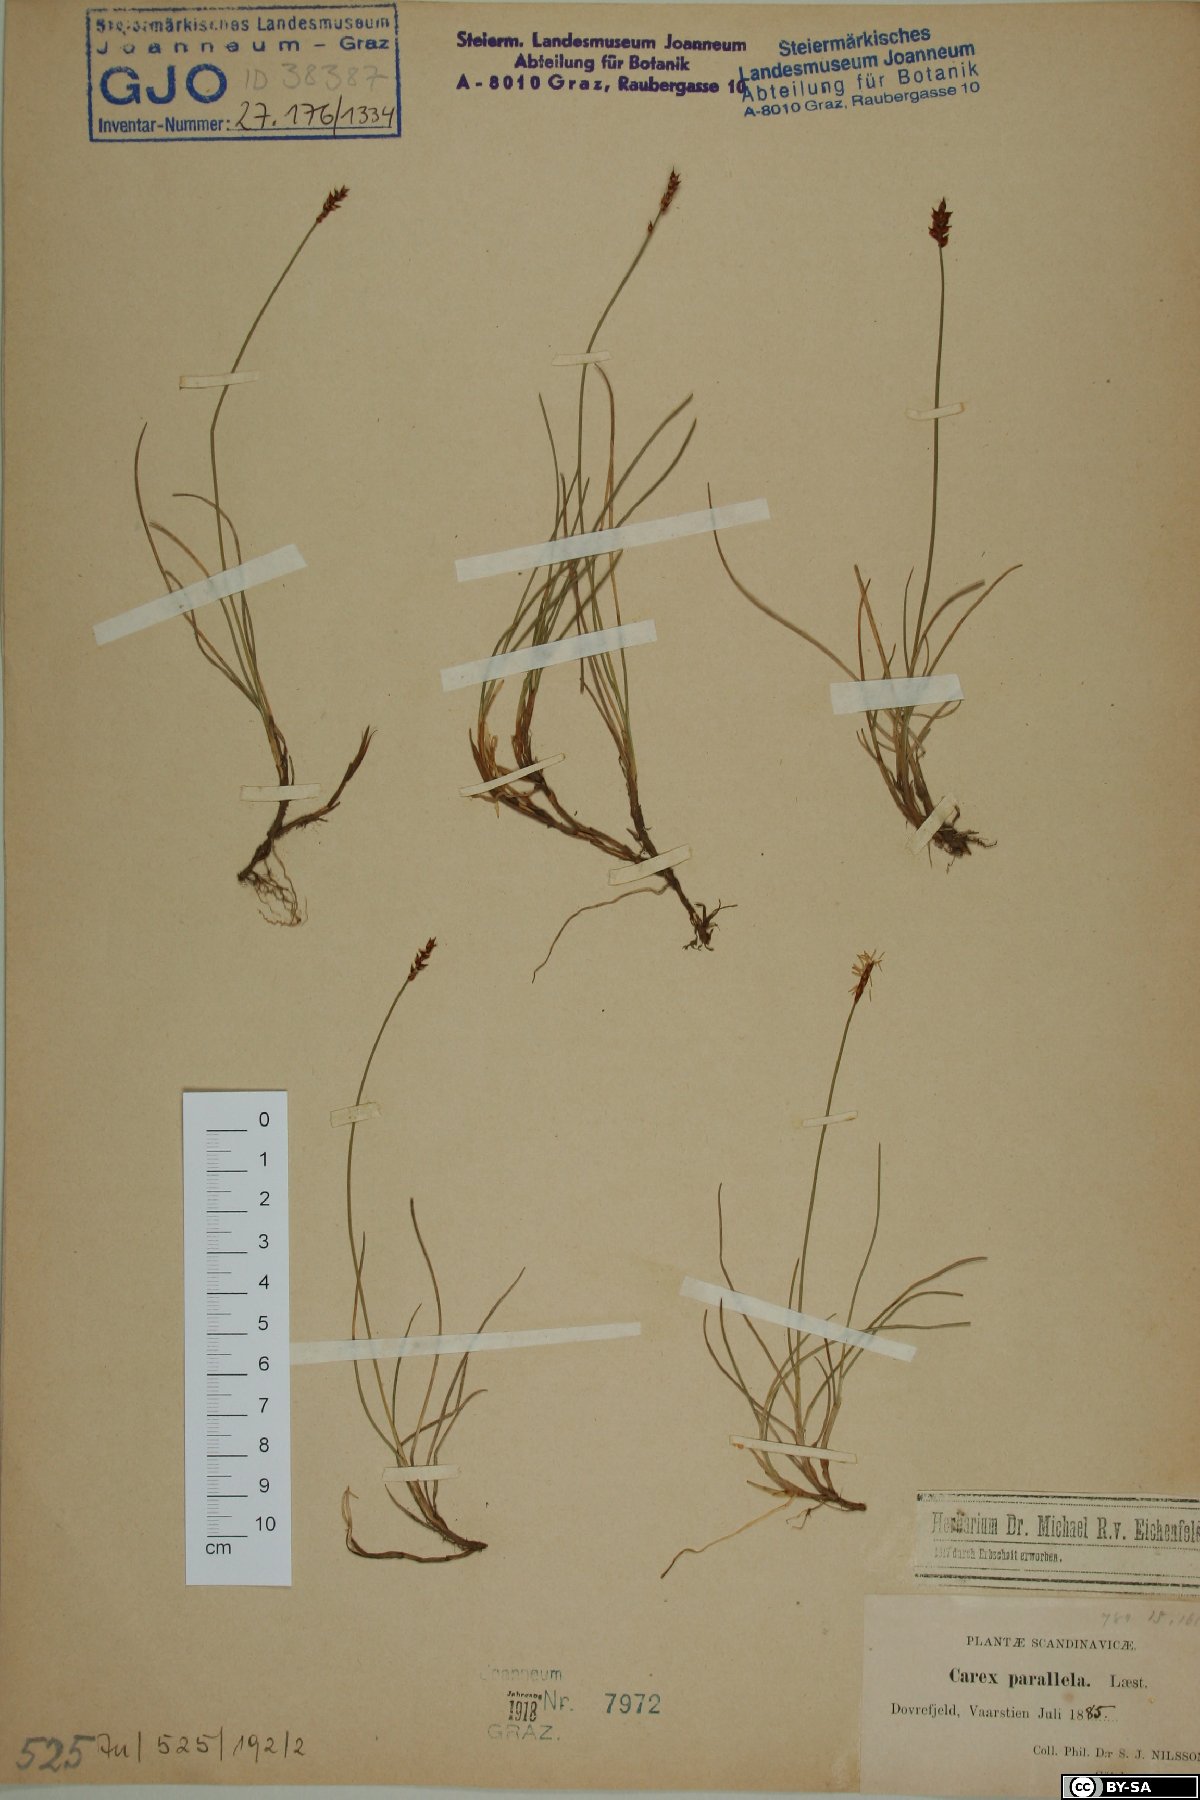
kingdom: Plantae
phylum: Tracheophyta
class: Liliopsida
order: Poales
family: Cyperaceae
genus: Carex
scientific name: Carex parallela
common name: Parallel sedge
